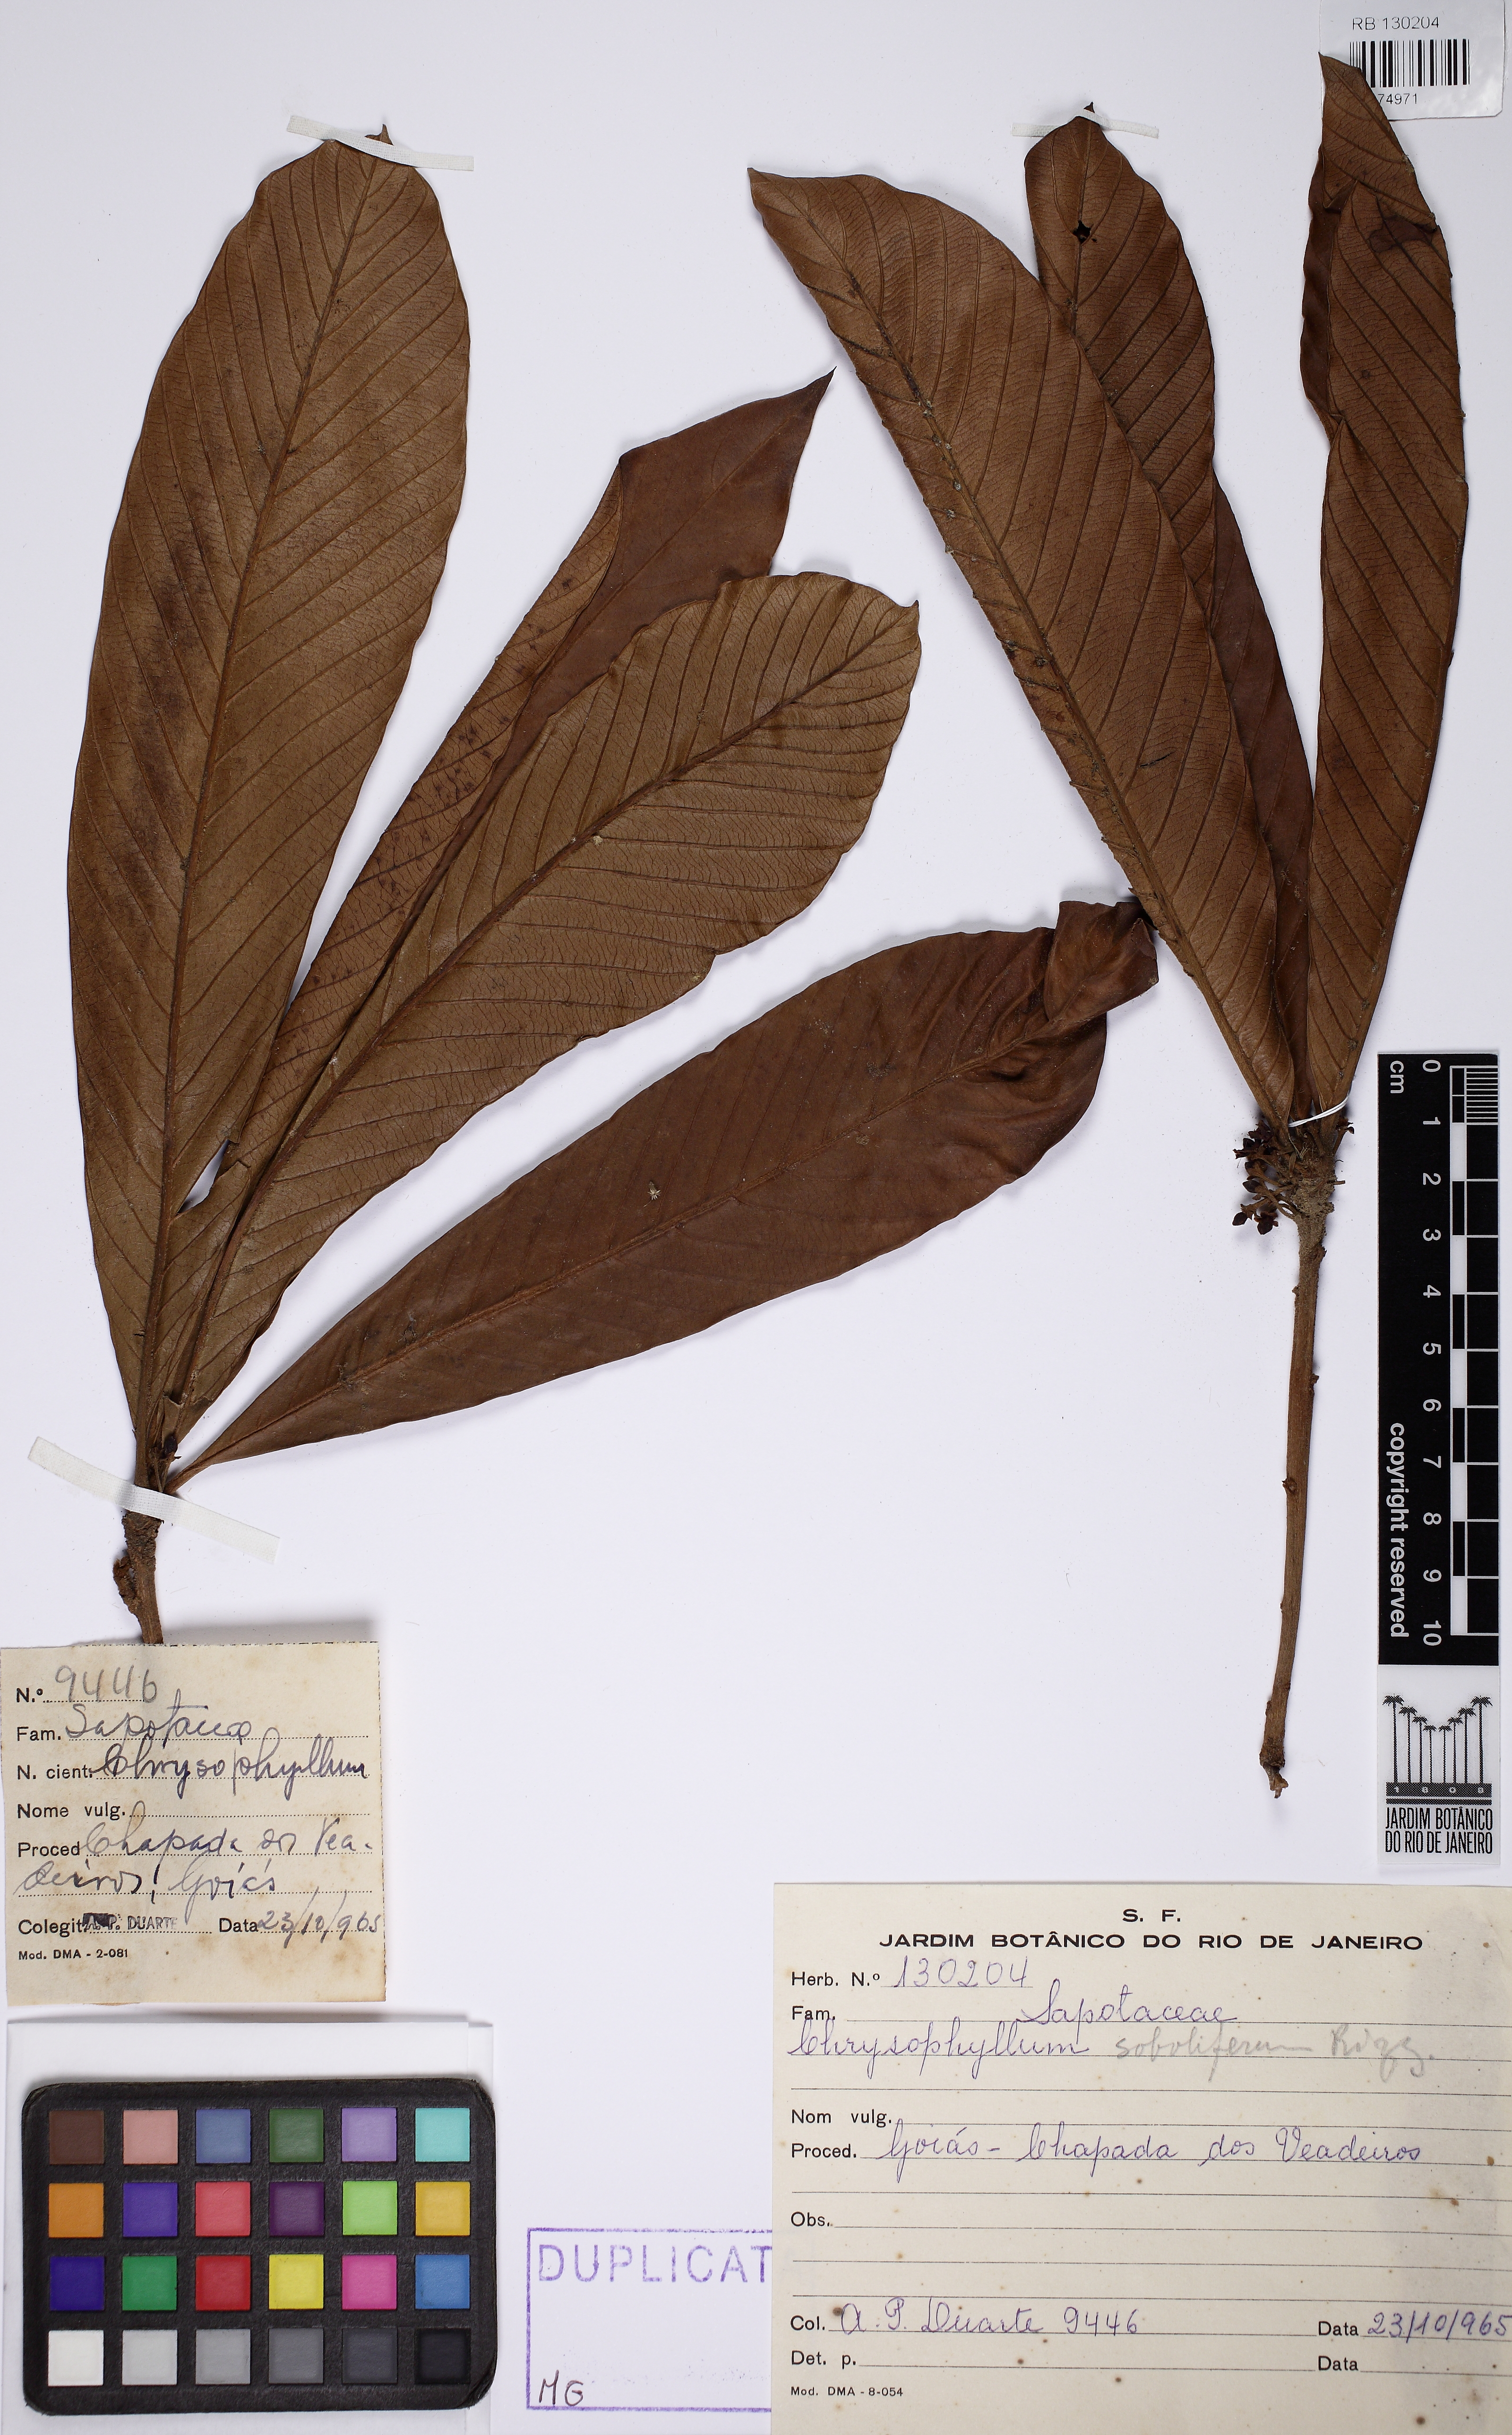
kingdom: Plantae
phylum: Tracheophyta
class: Magnoliopsida
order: Ericales
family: Sapotaceae
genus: Pradosia
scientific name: Pradosia brevipes
